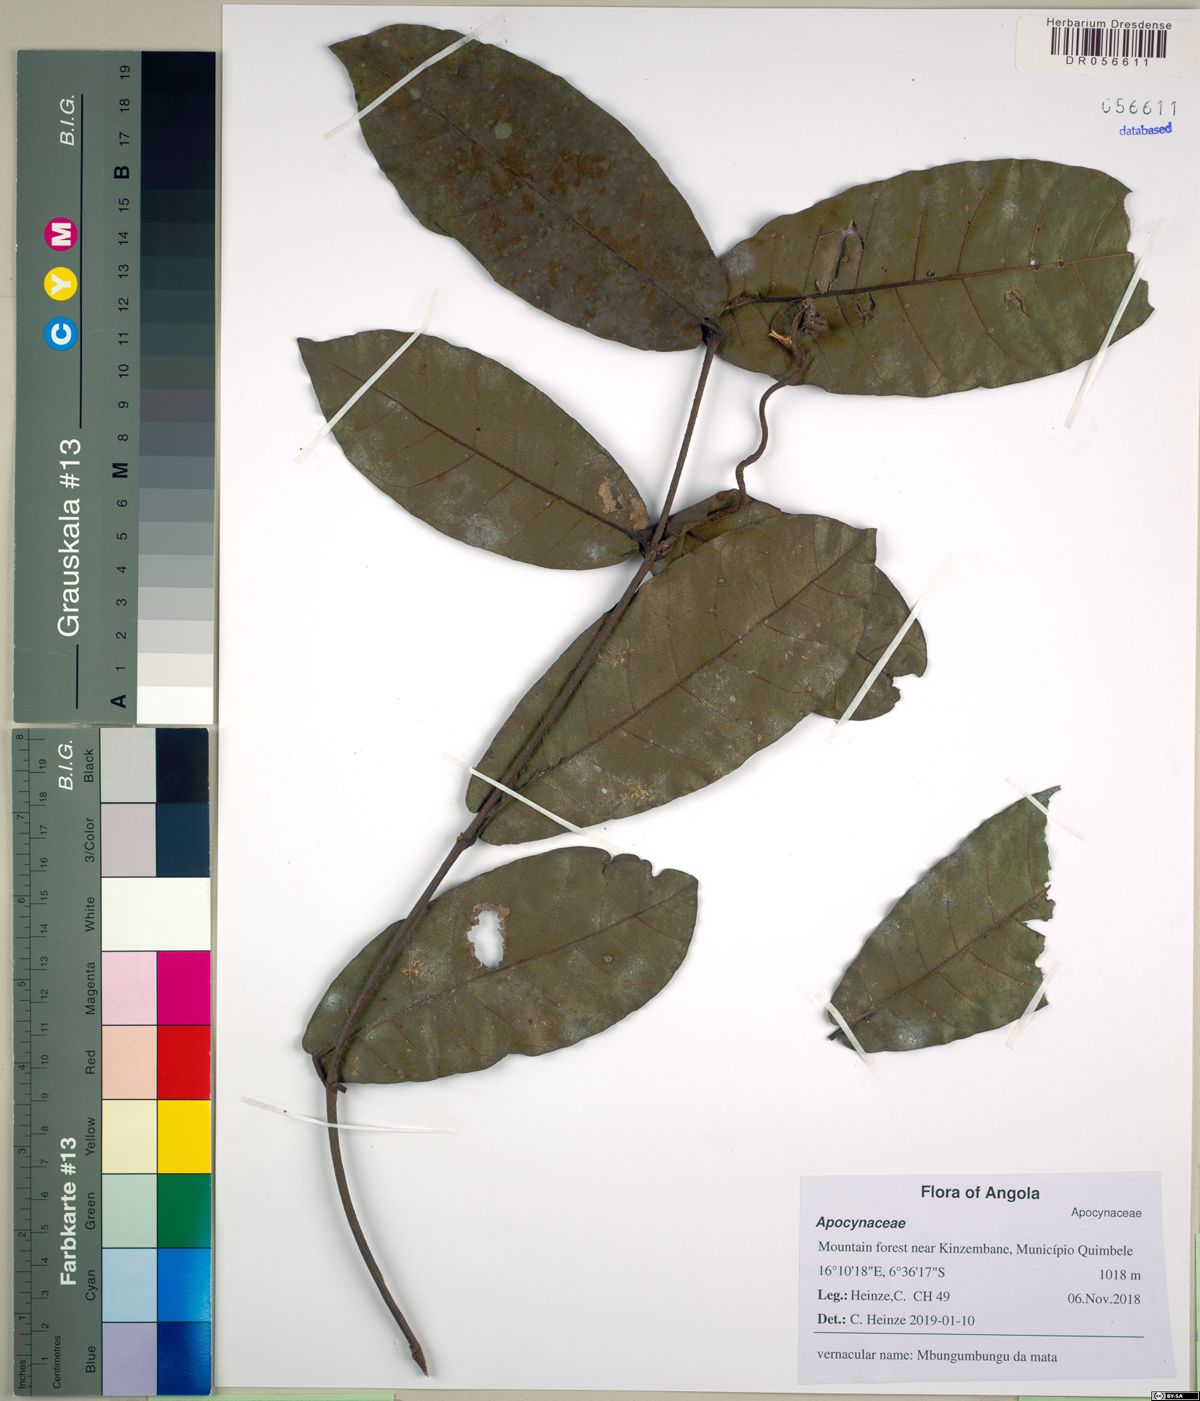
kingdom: Plantae
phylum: Tracheophyta
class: Magnoliopsida
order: Gentianales
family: Apocynaceae
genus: Landolphia
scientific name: Landolphia
